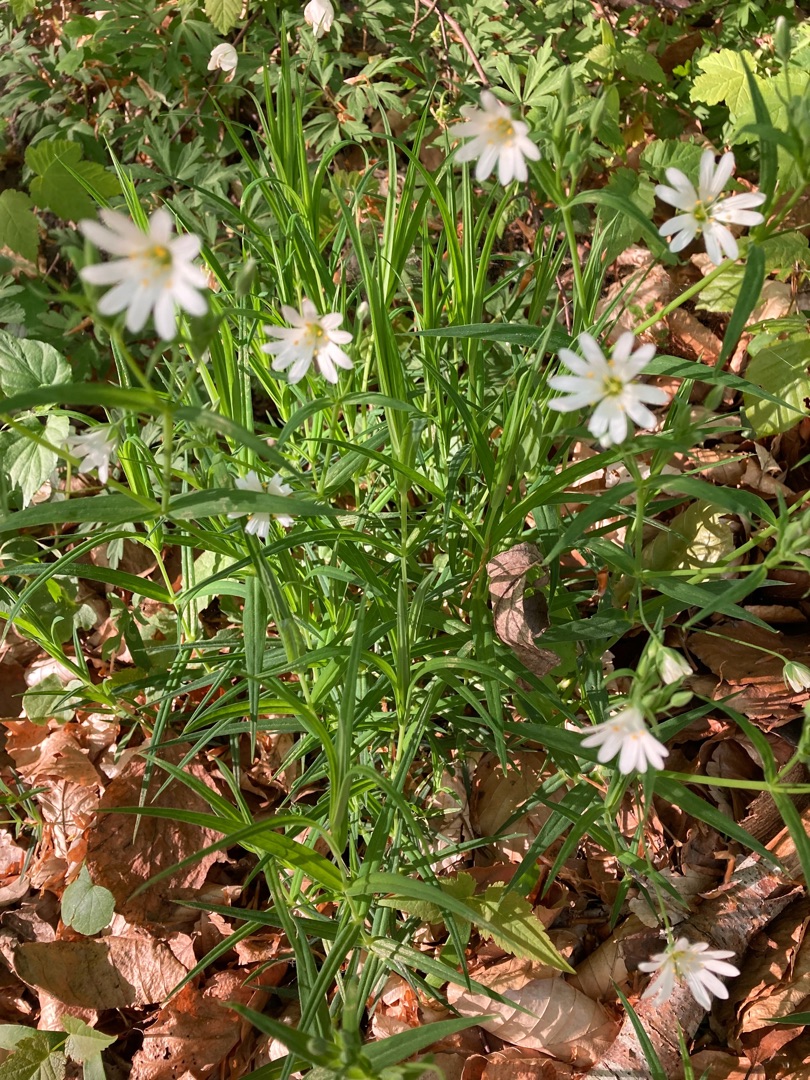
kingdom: Plantae
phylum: Tracheophyta
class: Magnoliopsida
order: Caryophyllales
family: Caryophyllaceae
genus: Rabelera
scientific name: Rabelera holostea
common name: Stor fladstjerne
